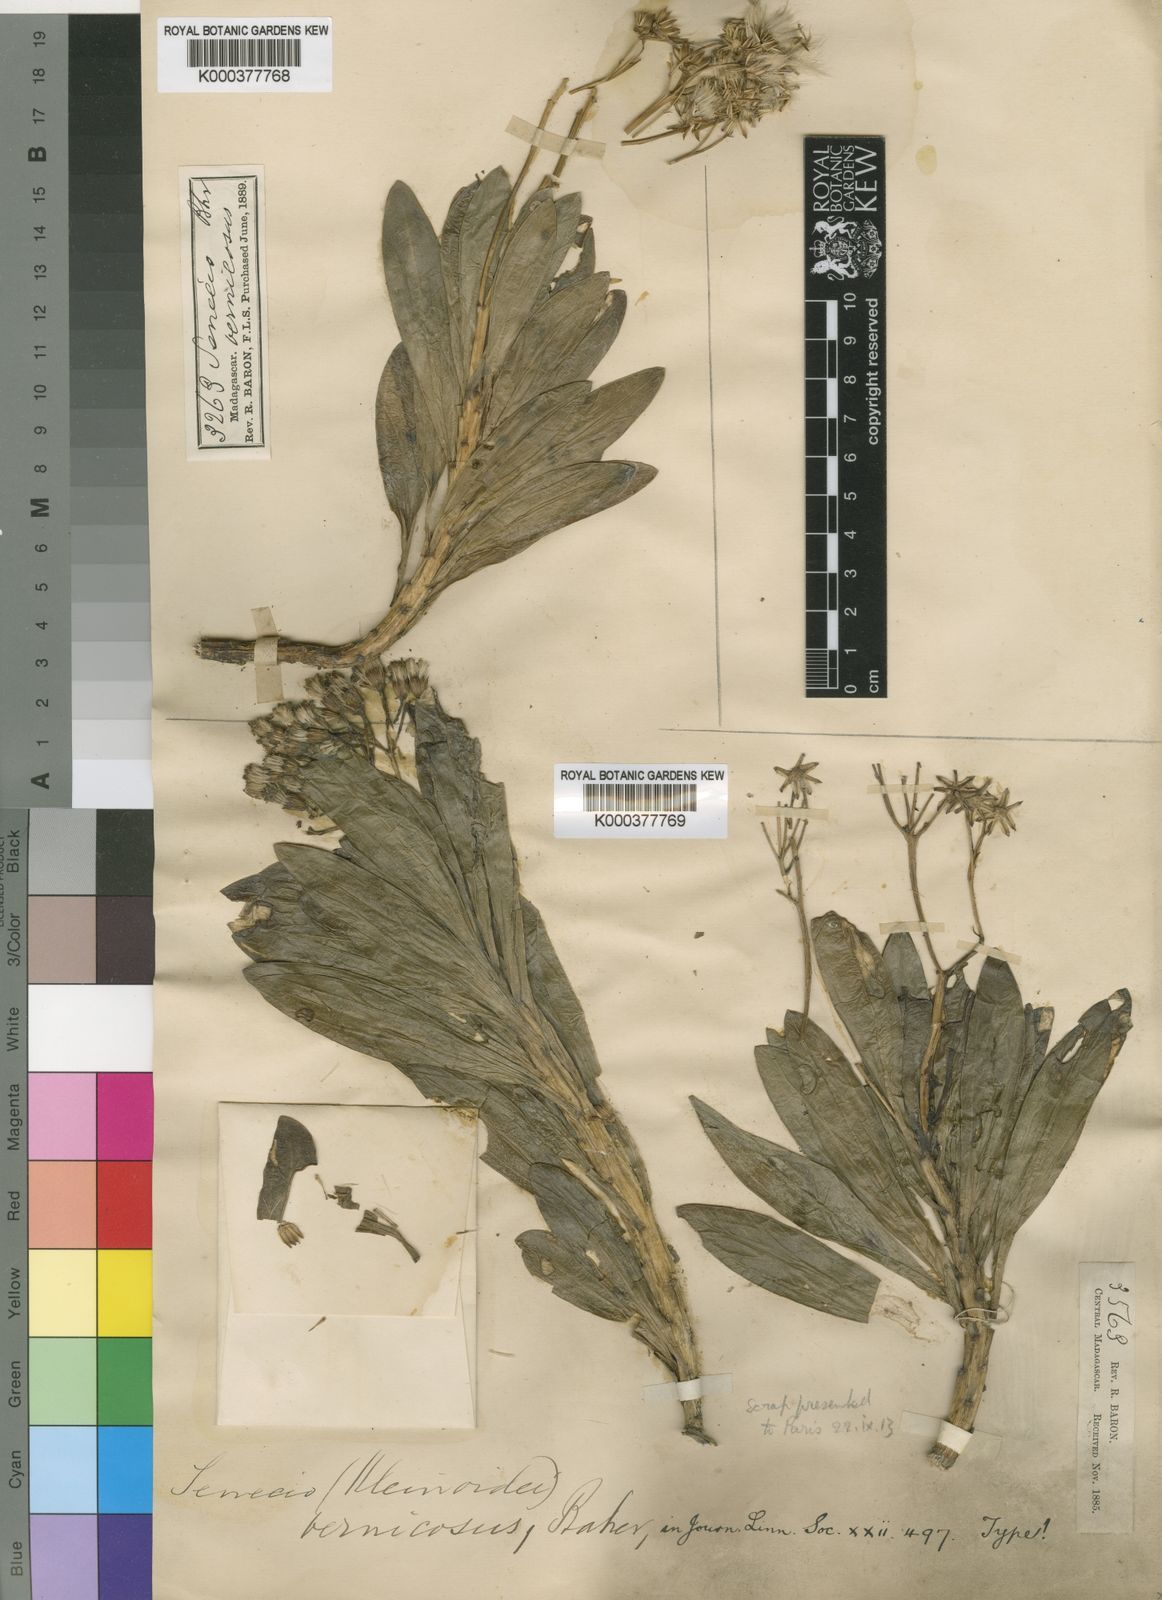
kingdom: Plantae
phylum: Tracheophyta
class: Magnoliopsida
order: Asterales
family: Asteraceae
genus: Senecio
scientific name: Senecio neobakeri
